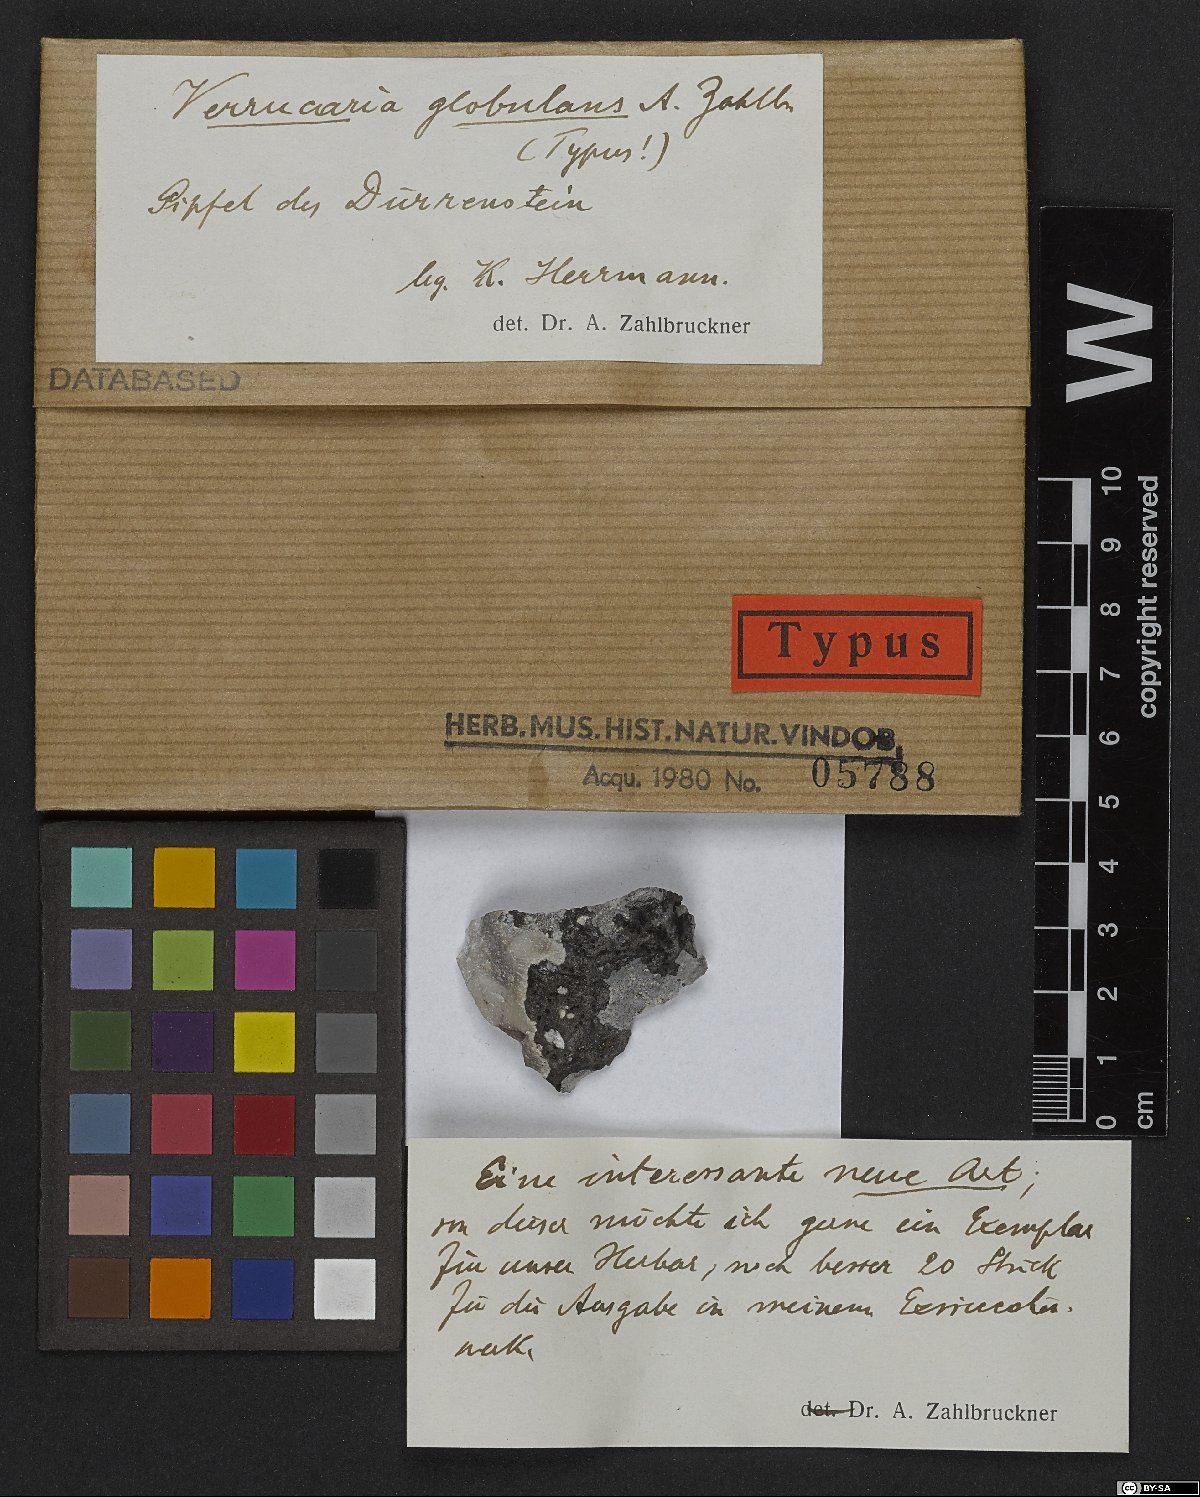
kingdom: Fungi
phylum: Ascomycota
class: Eurotiomycetes
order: Verrucariales
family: Verrucariaceae
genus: Verrucaria
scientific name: Verrucaria
